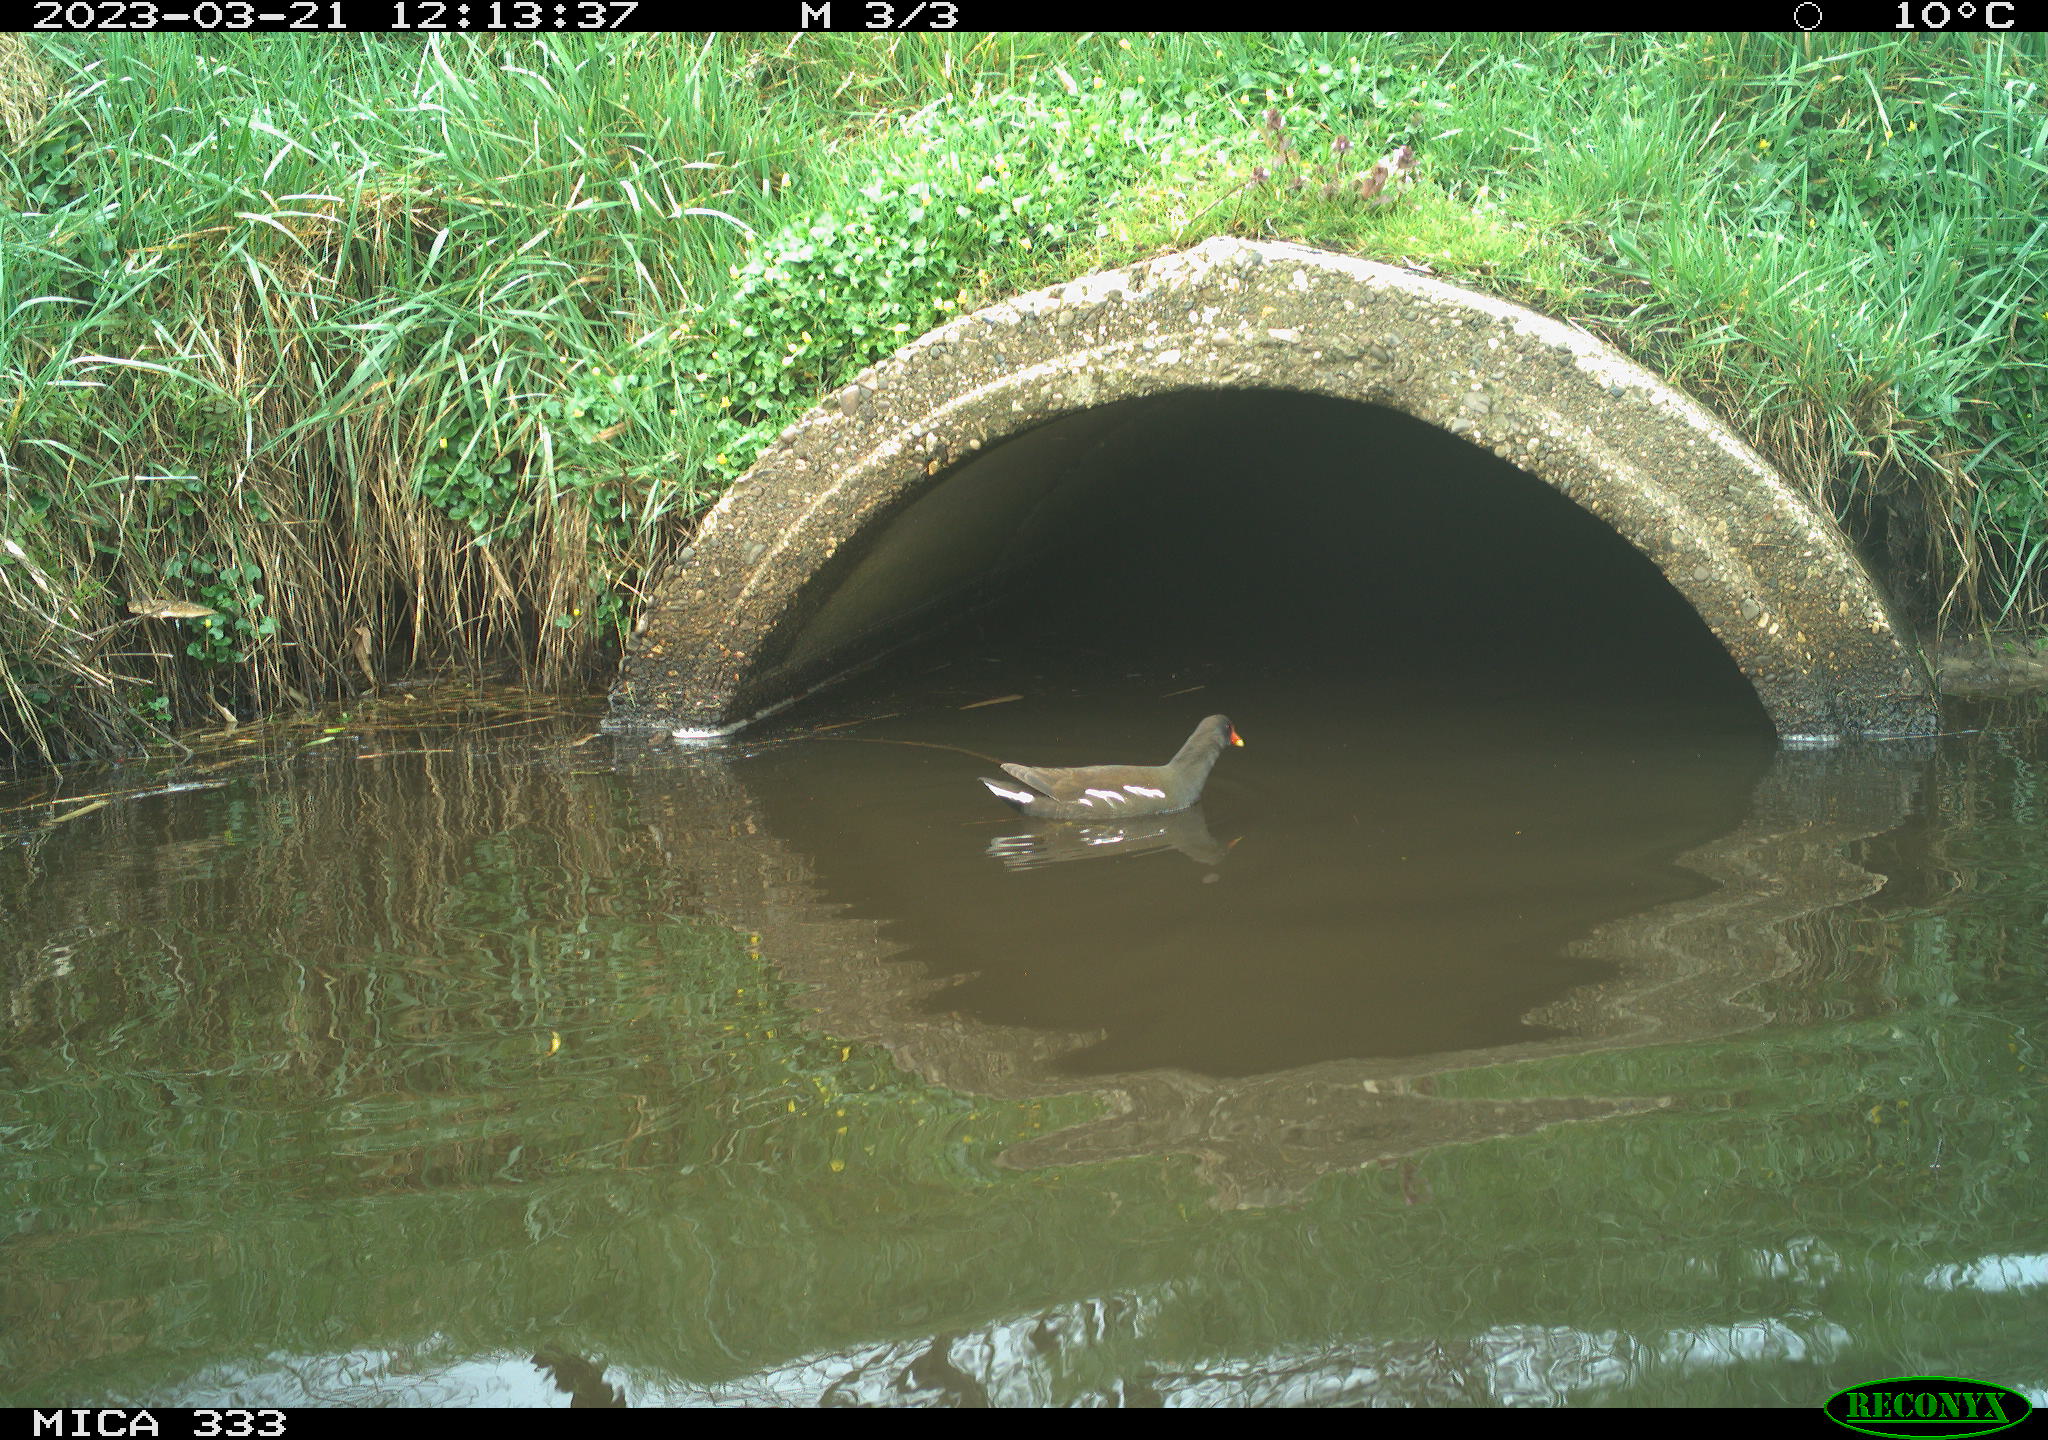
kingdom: Animalia
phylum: Chordata
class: Aves
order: Gruiformes
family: Rallidae
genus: Gallinula
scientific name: Gallinula chloropus
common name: Common moorhen
